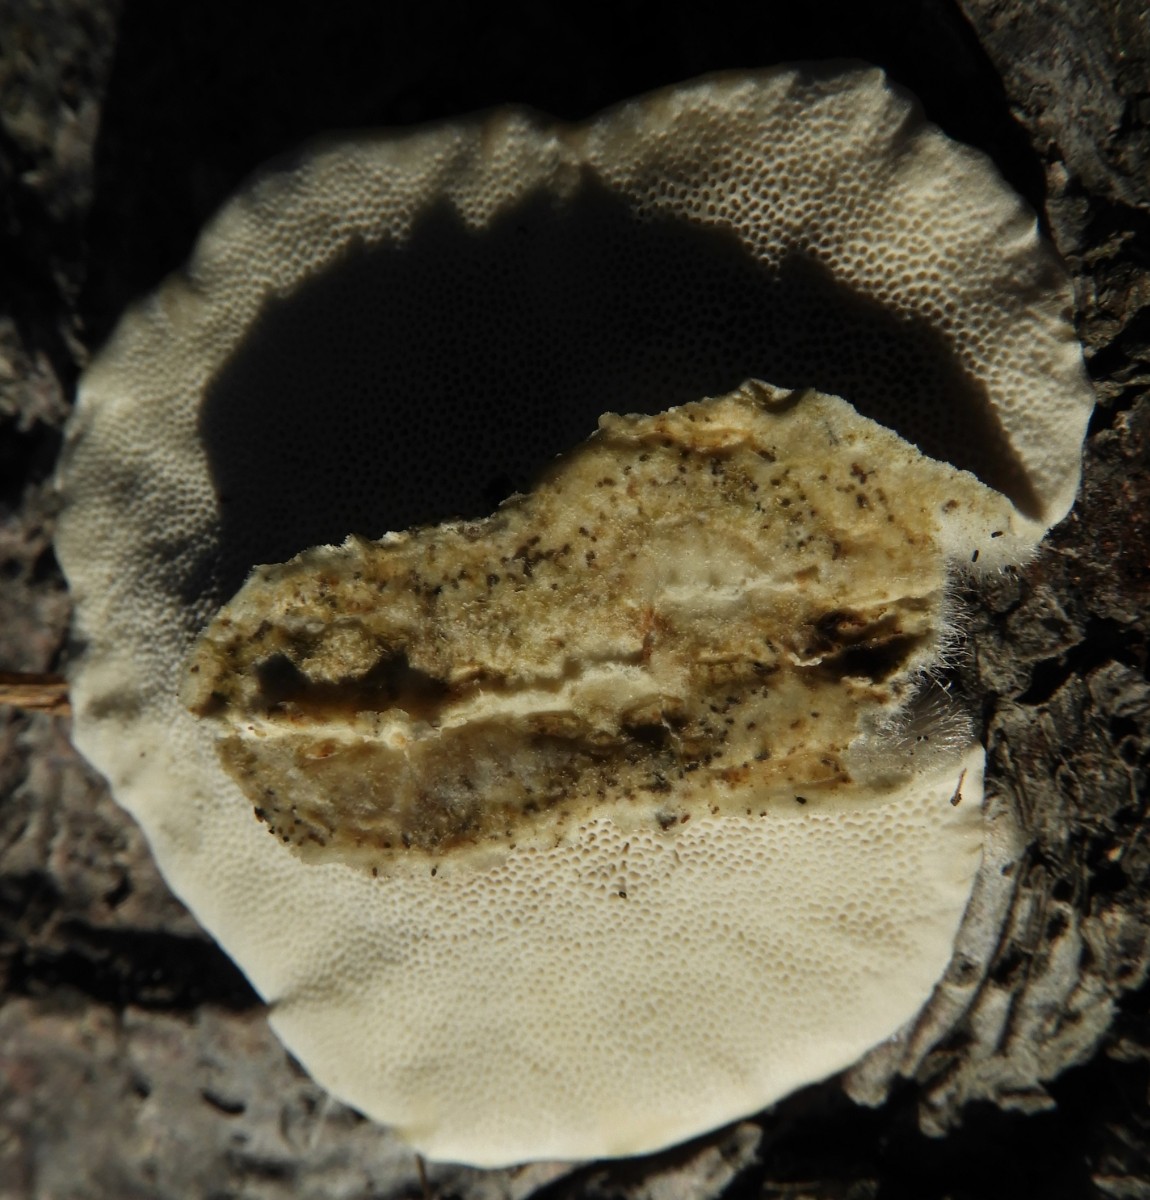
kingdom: Fungi
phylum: Basidiomycota
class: Agaricomycetes
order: Polyporales
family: Polyporaceae
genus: Trametes
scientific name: Trametes hirsuta
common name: håret læderporesvamp
